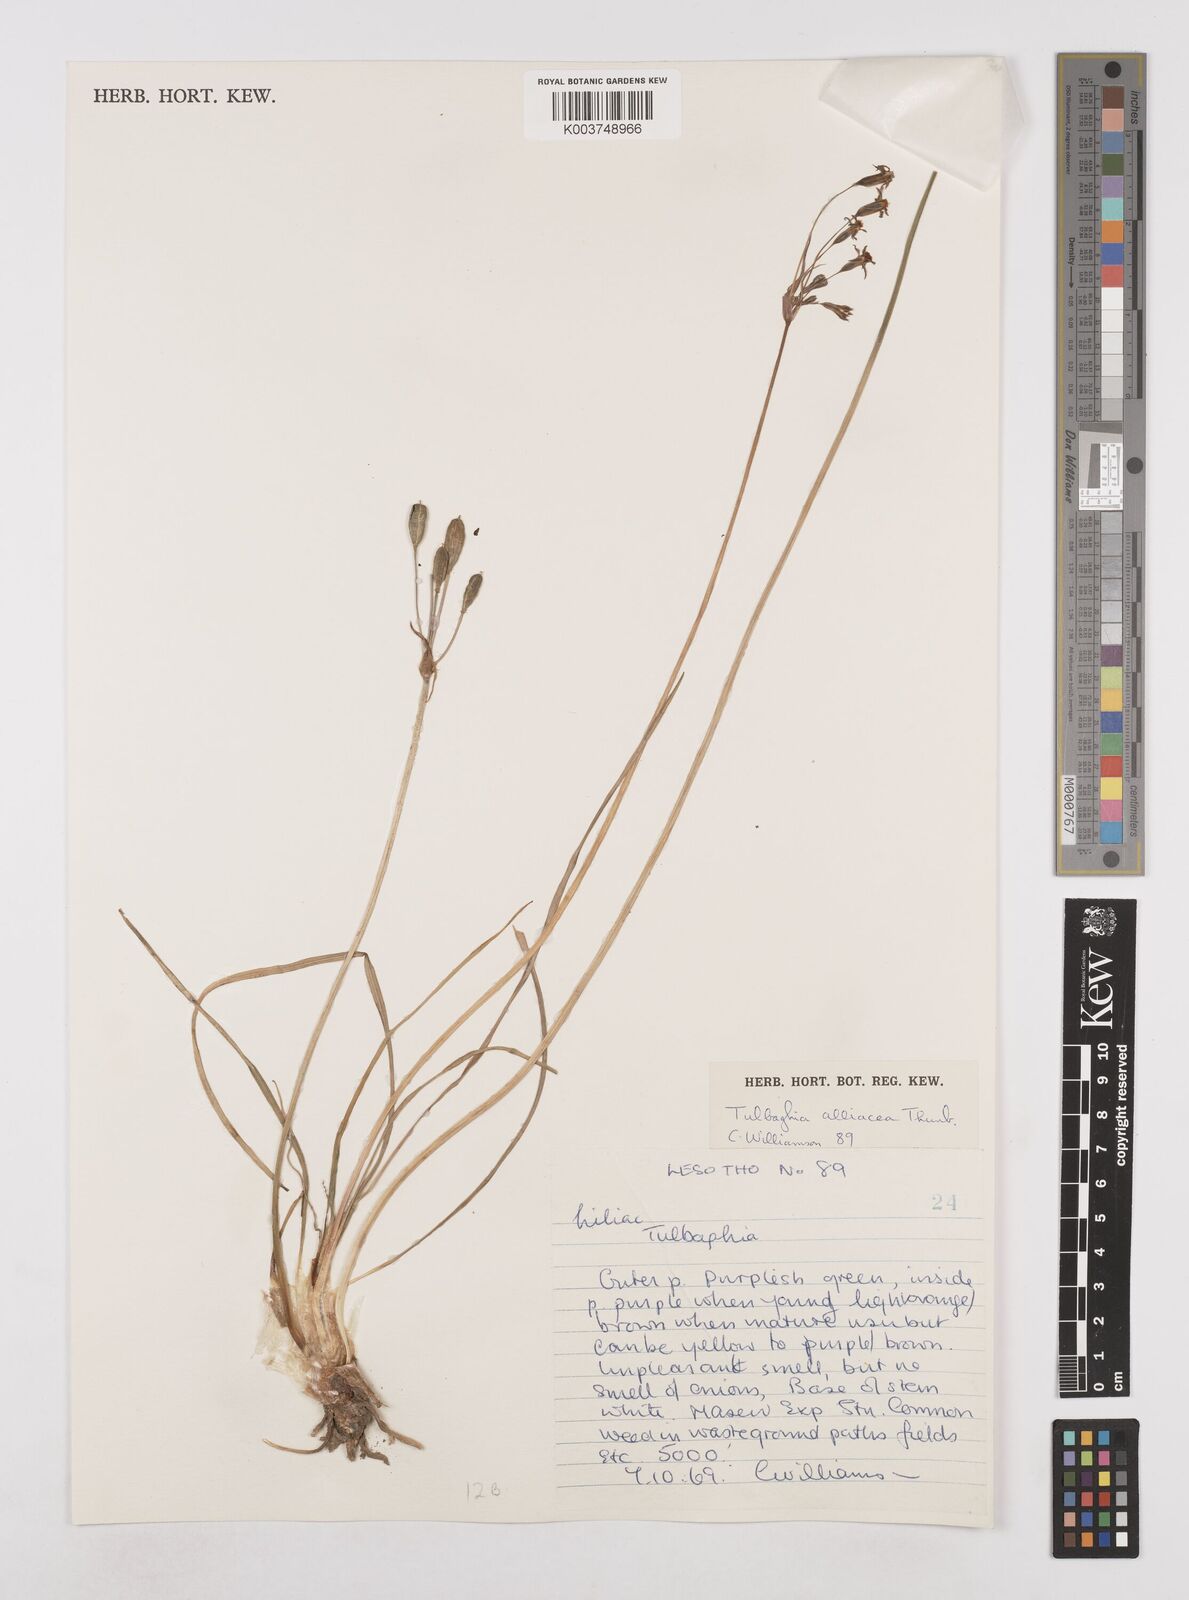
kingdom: Plantae
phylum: Tracheophyta
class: Liliopsida
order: Asparagales
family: Amaryllidaceae
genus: Tulbaghia
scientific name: Tulbaghia alliacea
